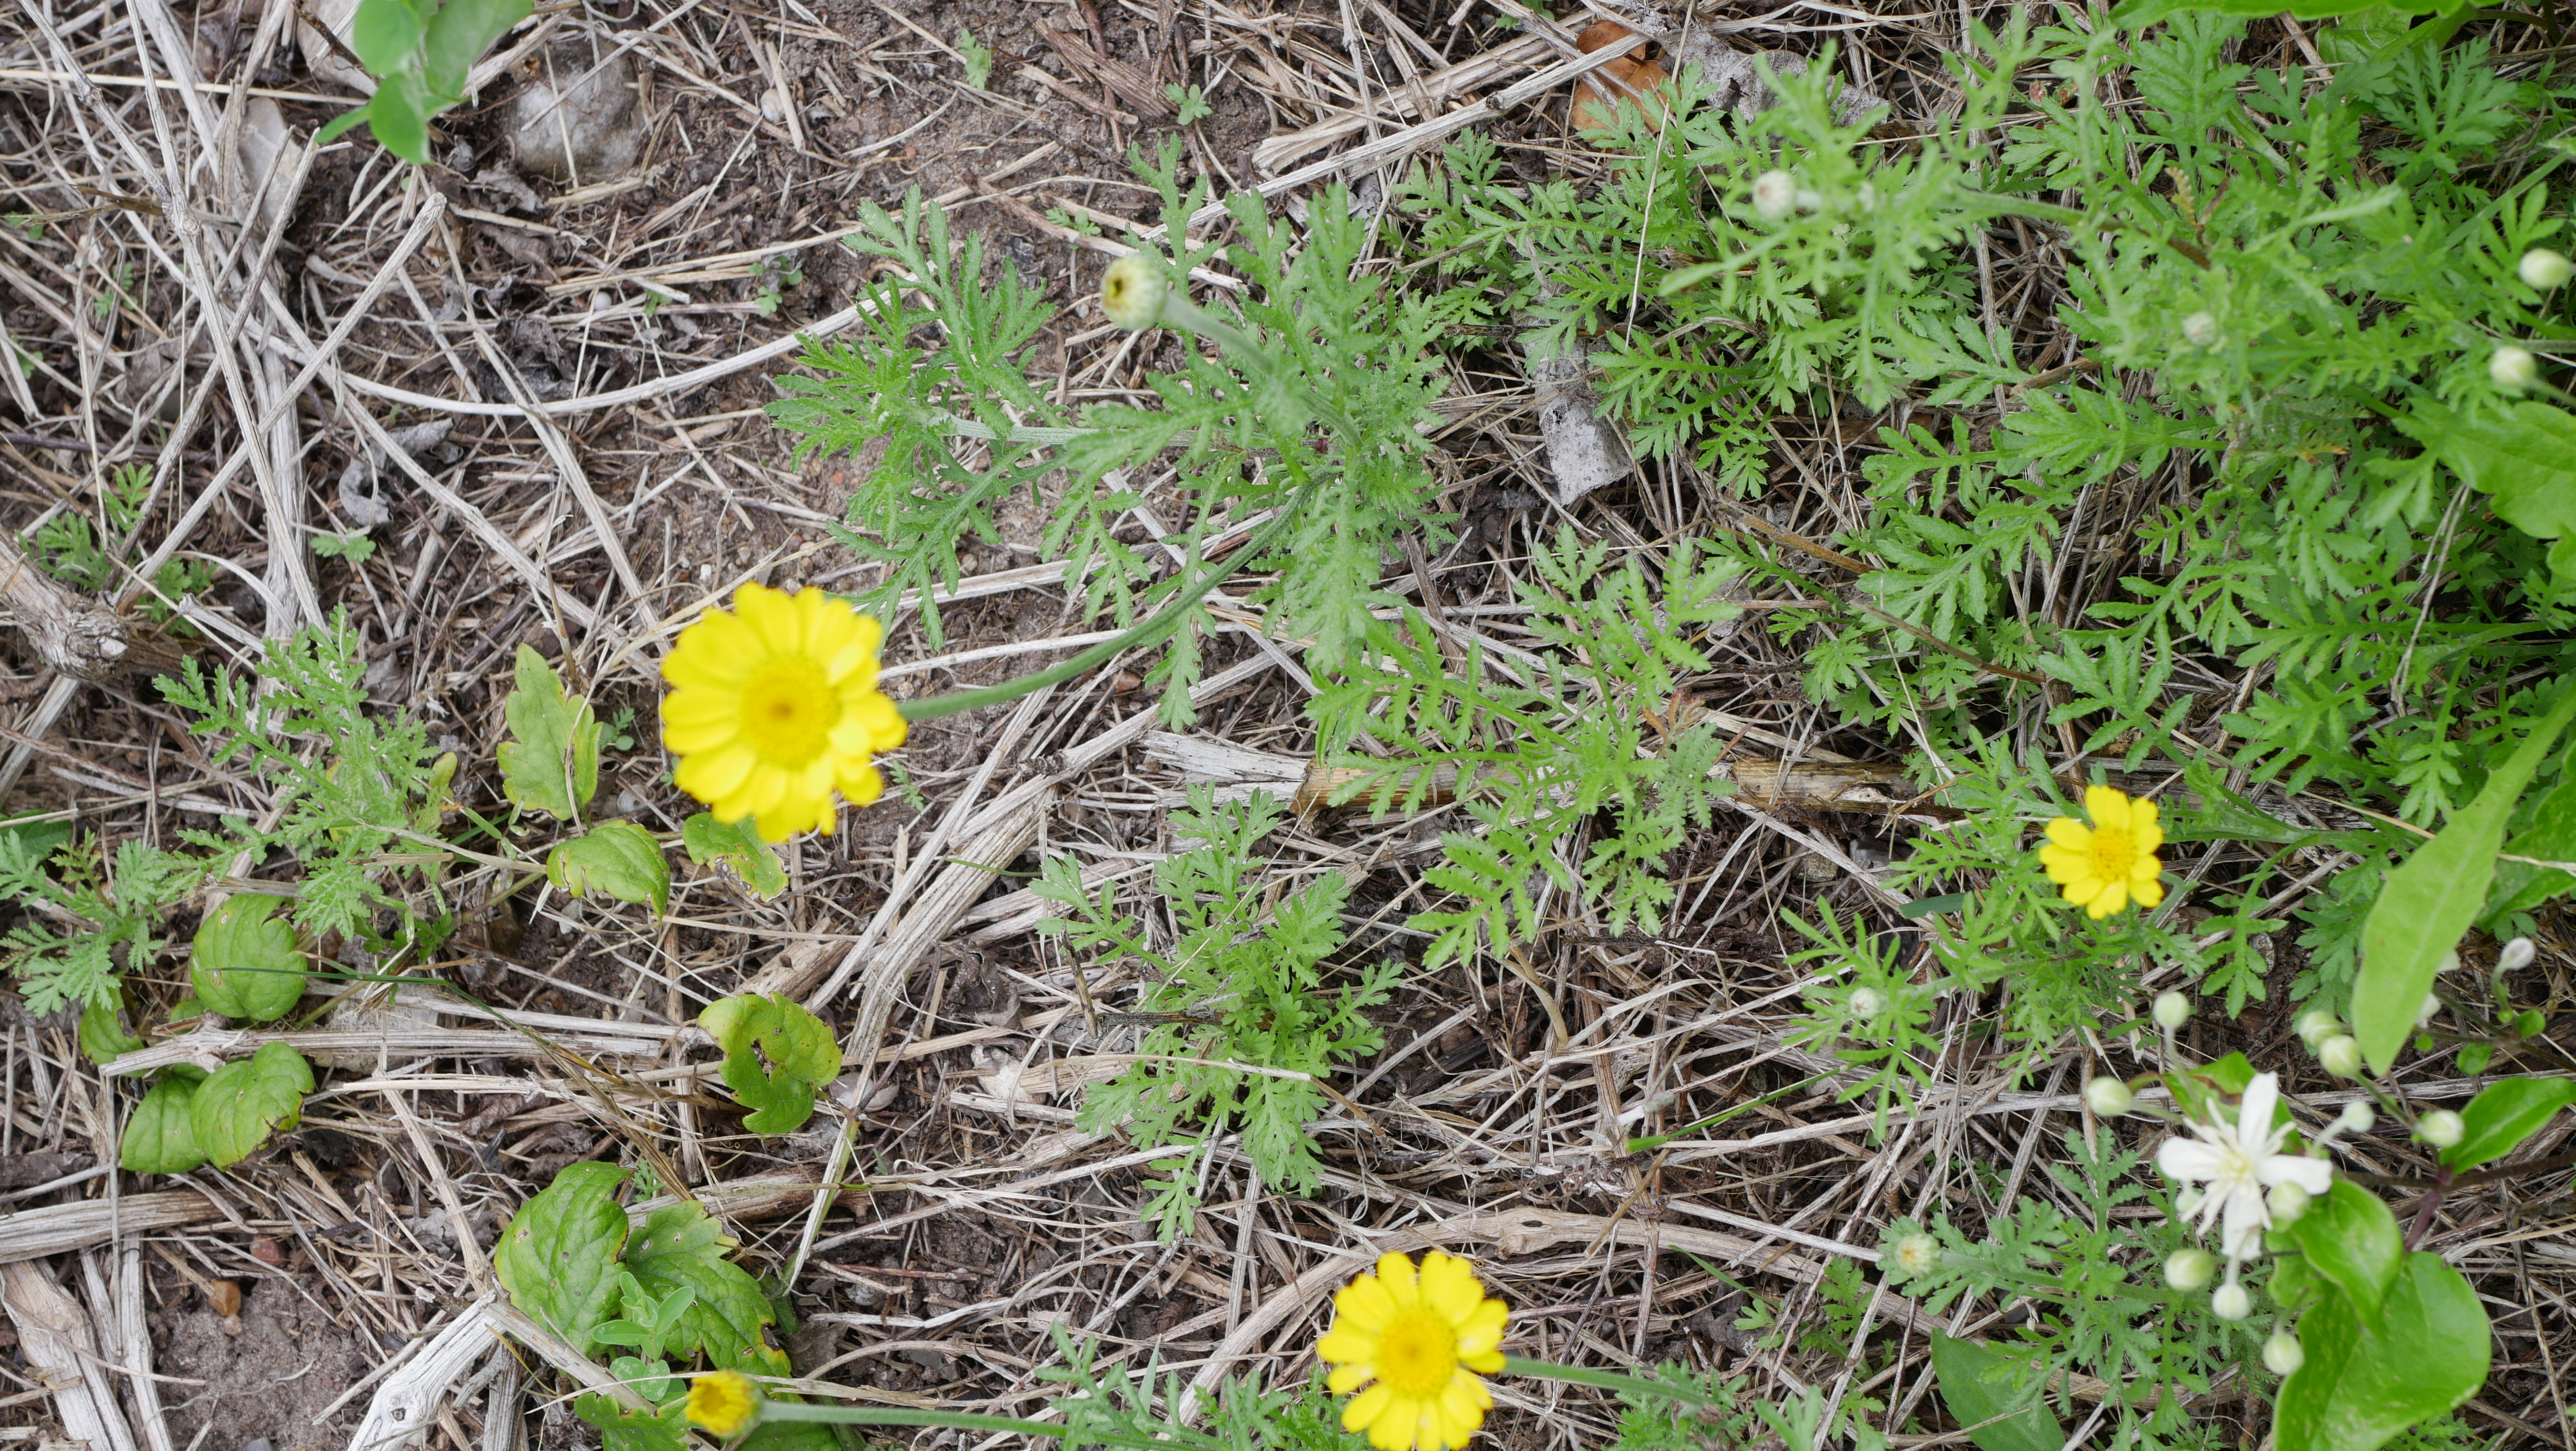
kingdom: Plantae
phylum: Tracheophyta
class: Magnoliopsida
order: Asterales
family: Asteraceae
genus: Cota
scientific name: Cota tinctoria
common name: Farve-gåseurt
